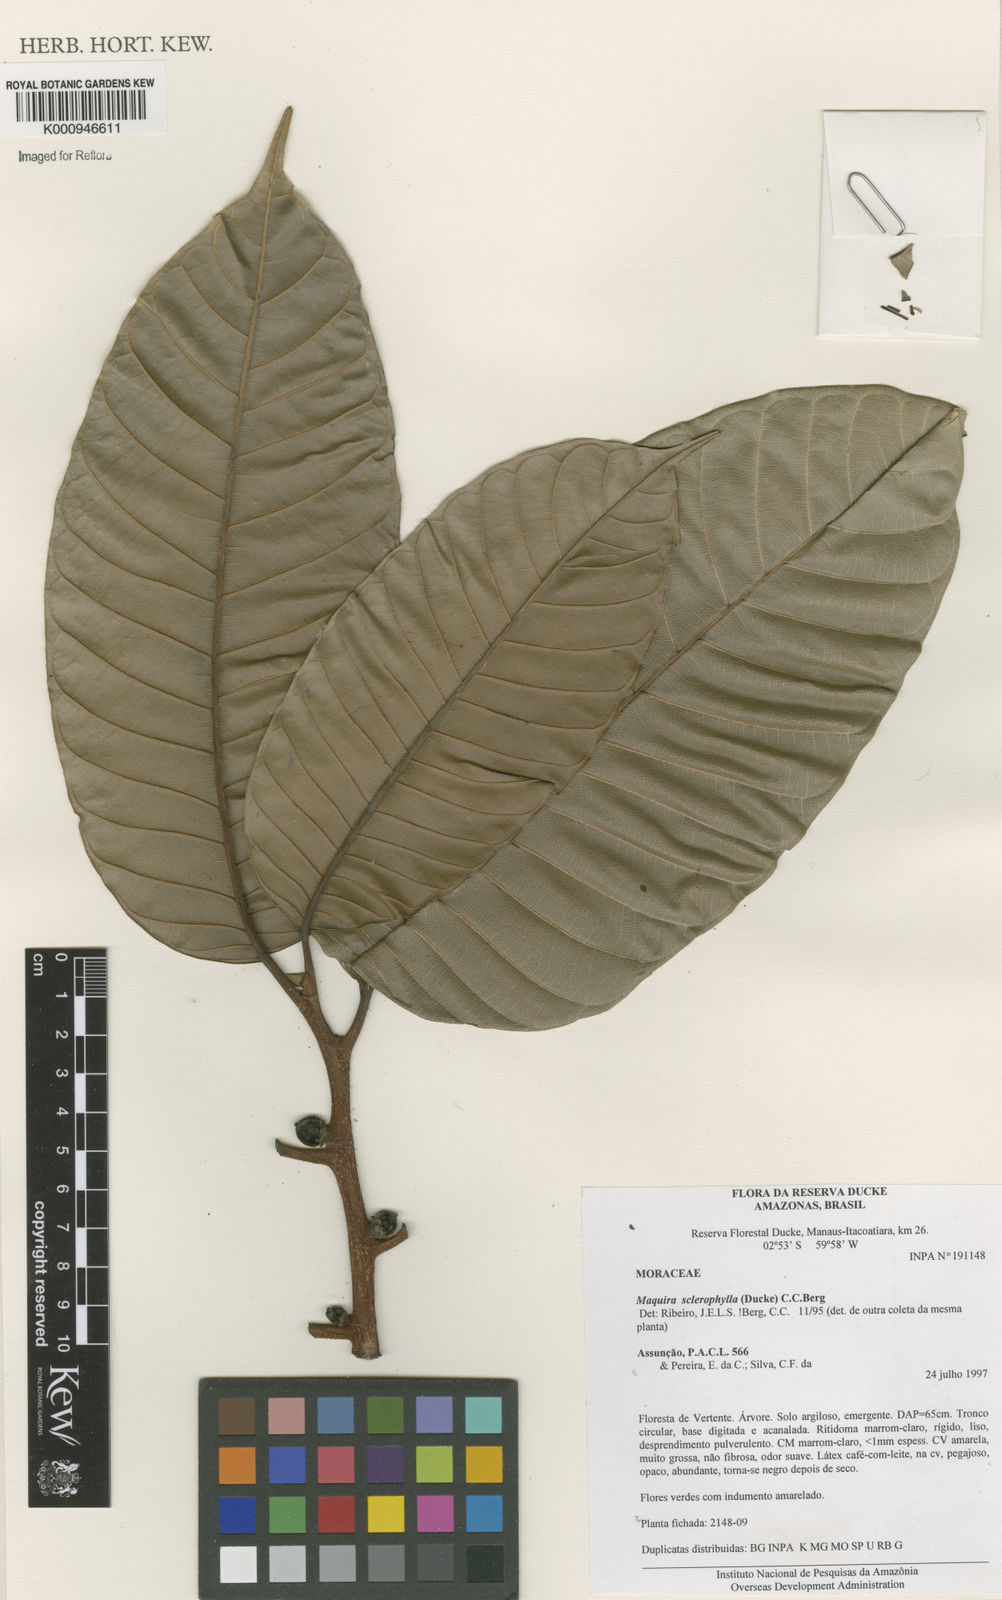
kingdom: Plantae
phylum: Tracheophyta
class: Magnoliopsida
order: Rosales
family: Moraceae
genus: Maquira
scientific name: Maquira sclerophylla
